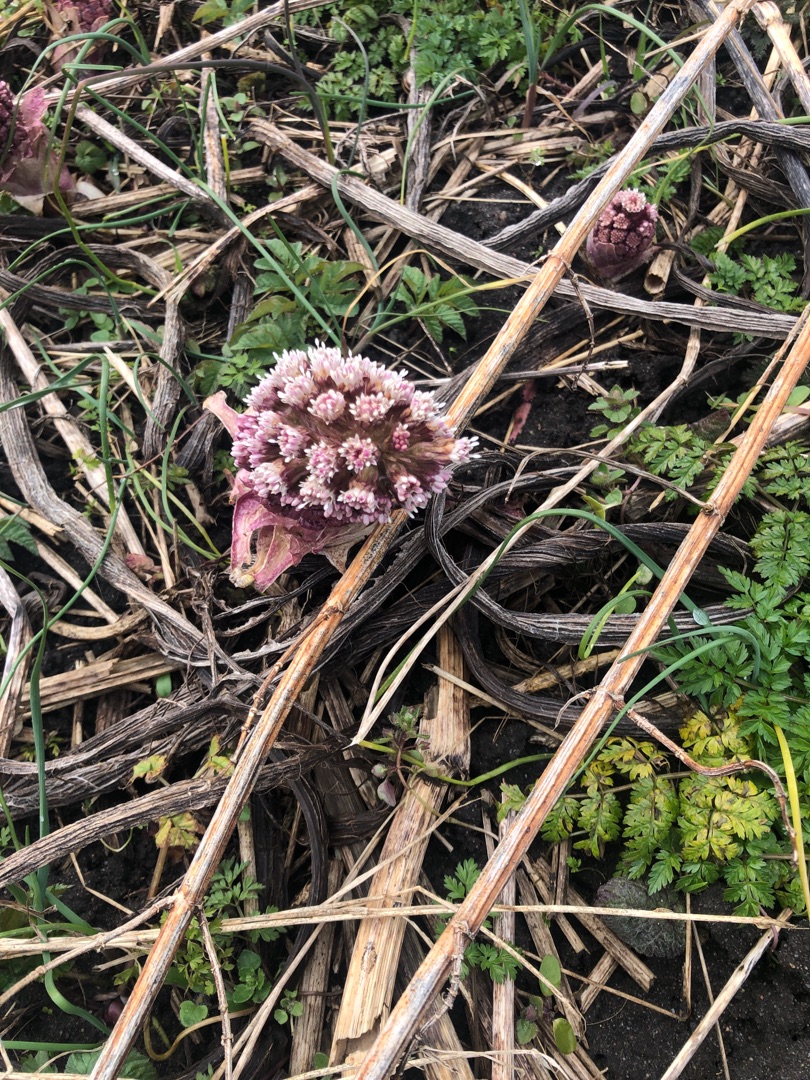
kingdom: Plantae
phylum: Tracheophyta
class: Magnoliopsida
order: Asterales
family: Asteraceae
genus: Petasites
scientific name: Petasites hybridus
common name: Rød hestehov
